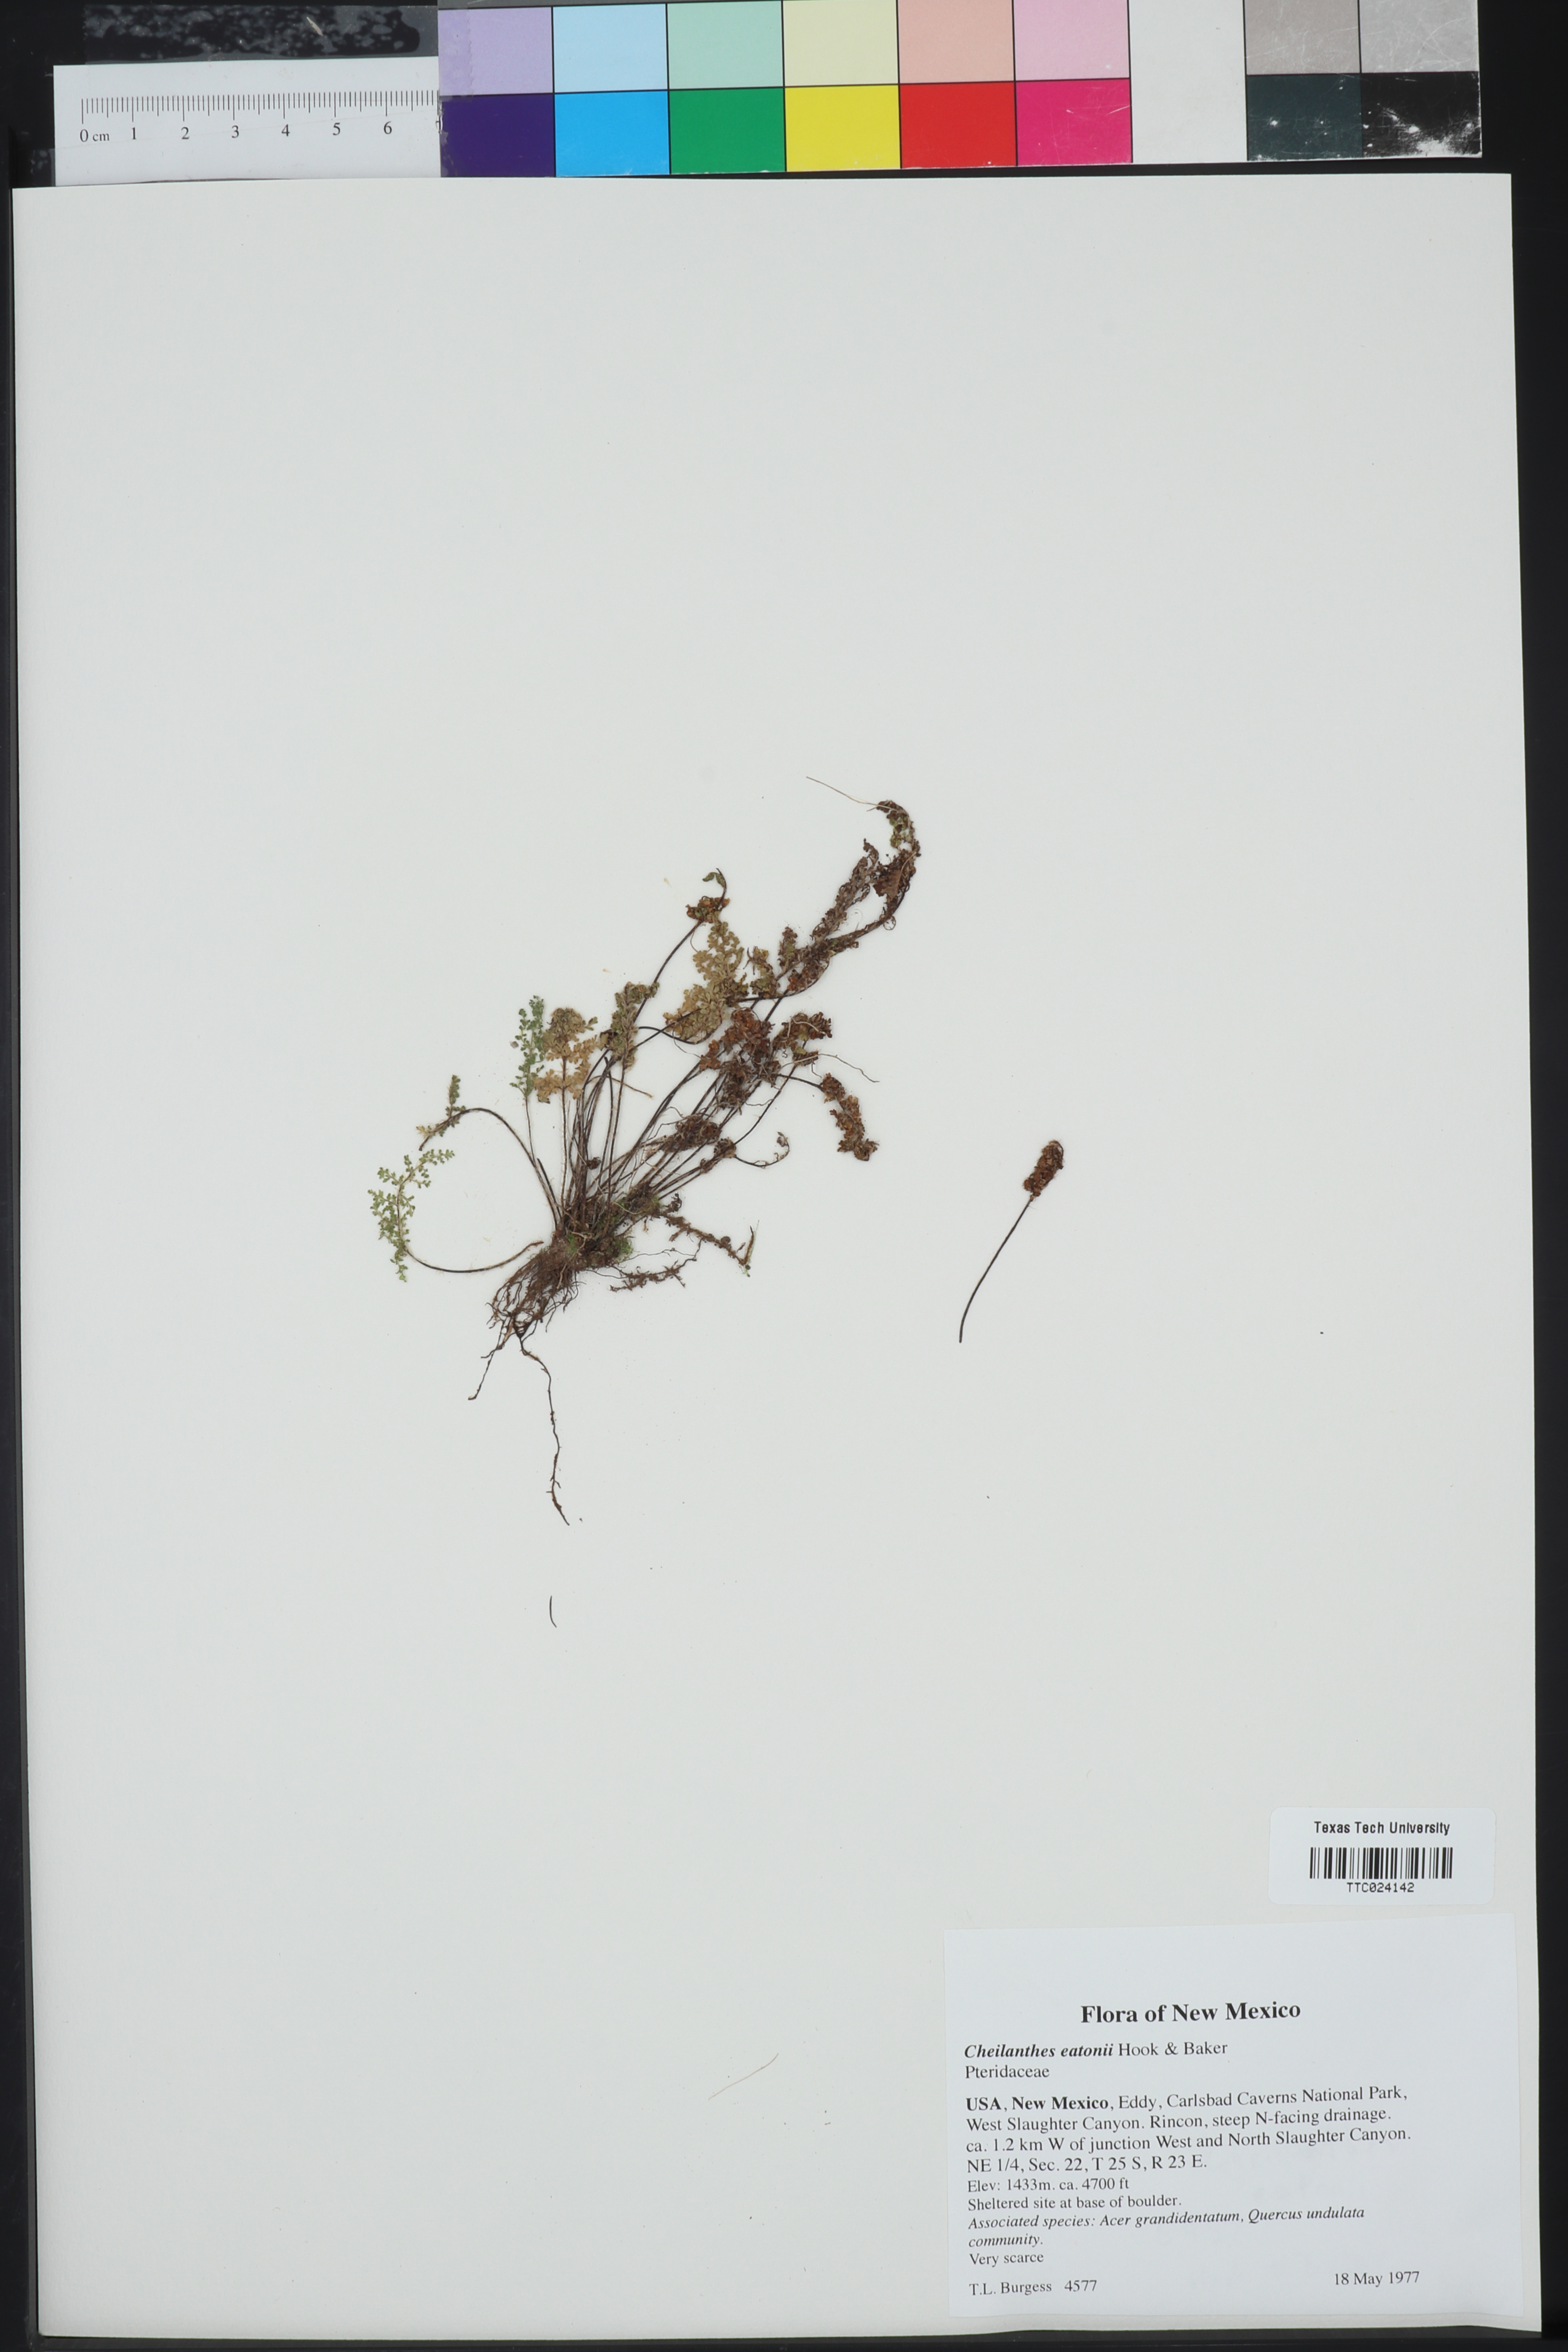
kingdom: Plantae
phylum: Tracheophyta
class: Polypodiopsida
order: Polypodiales
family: Pteridaceae
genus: Myriopteris
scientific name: Myriopteris rufa
